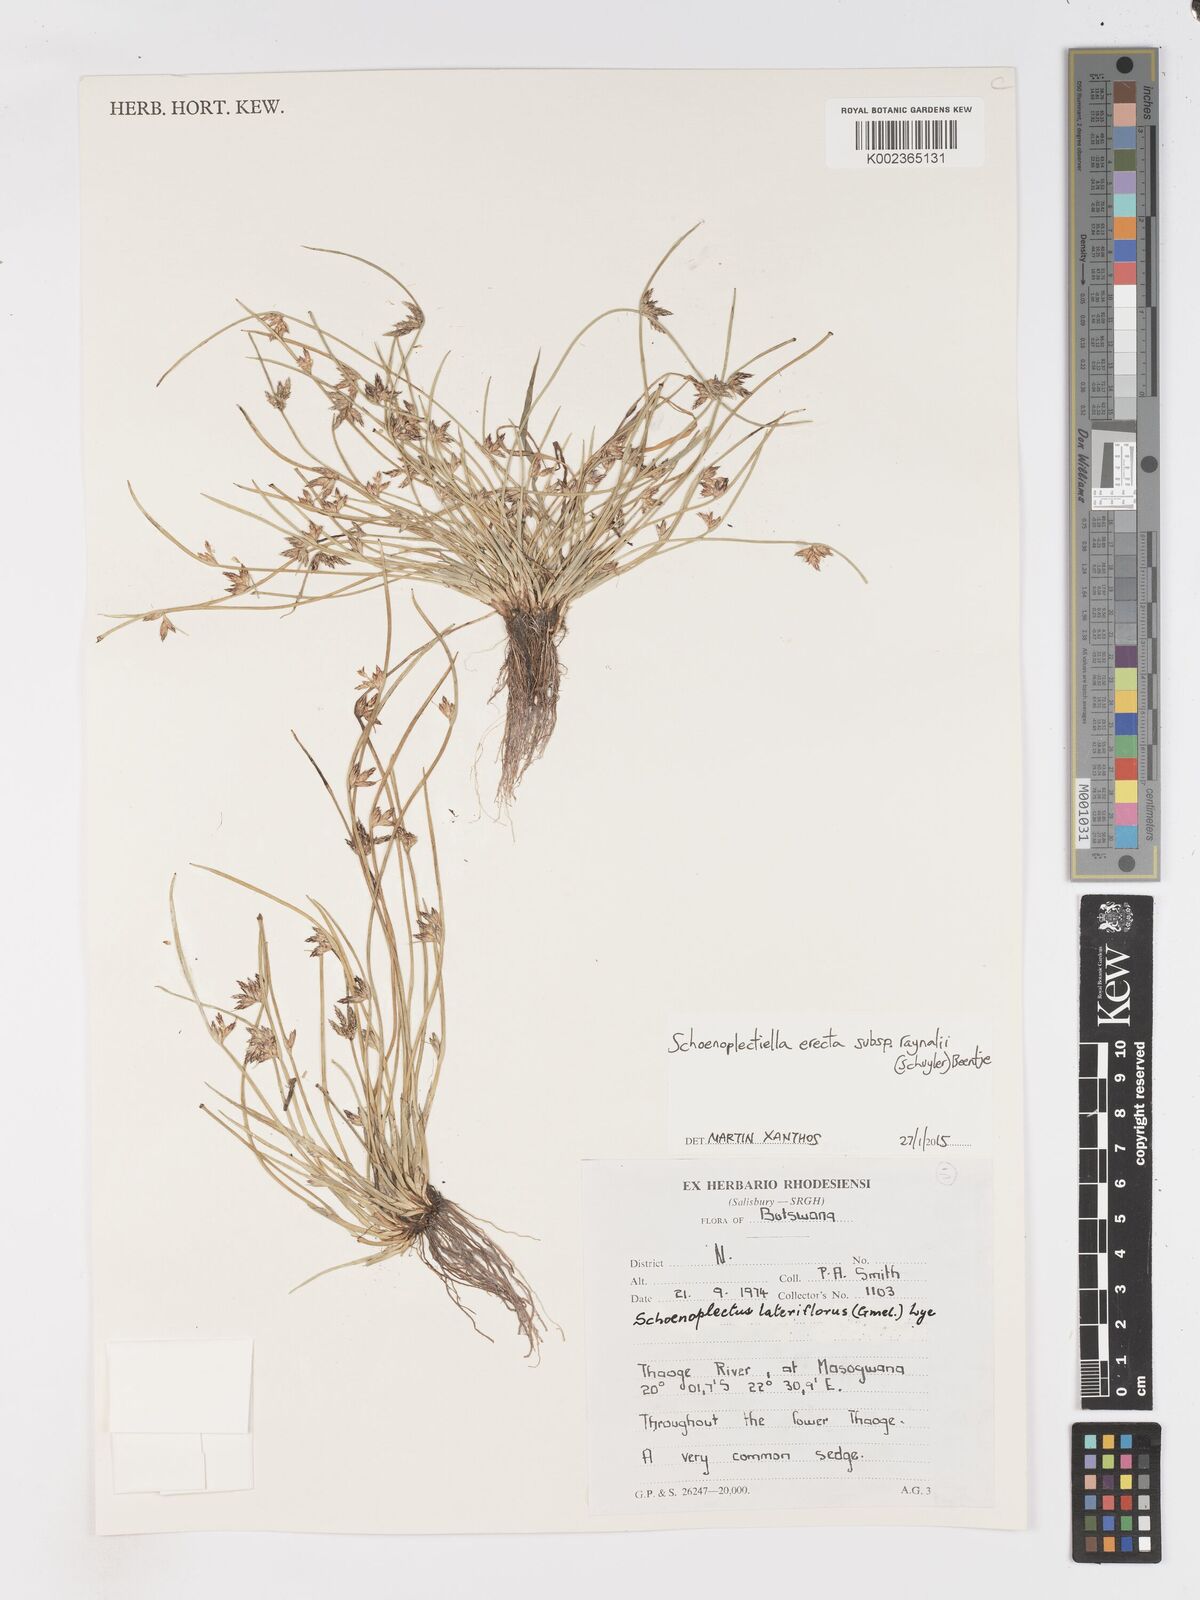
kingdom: Plantae
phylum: Tracheophyta
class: Liliopsida
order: Poales
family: Cyperaceae
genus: Schoenoplectiella
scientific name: Schoenoplectiella erecta
